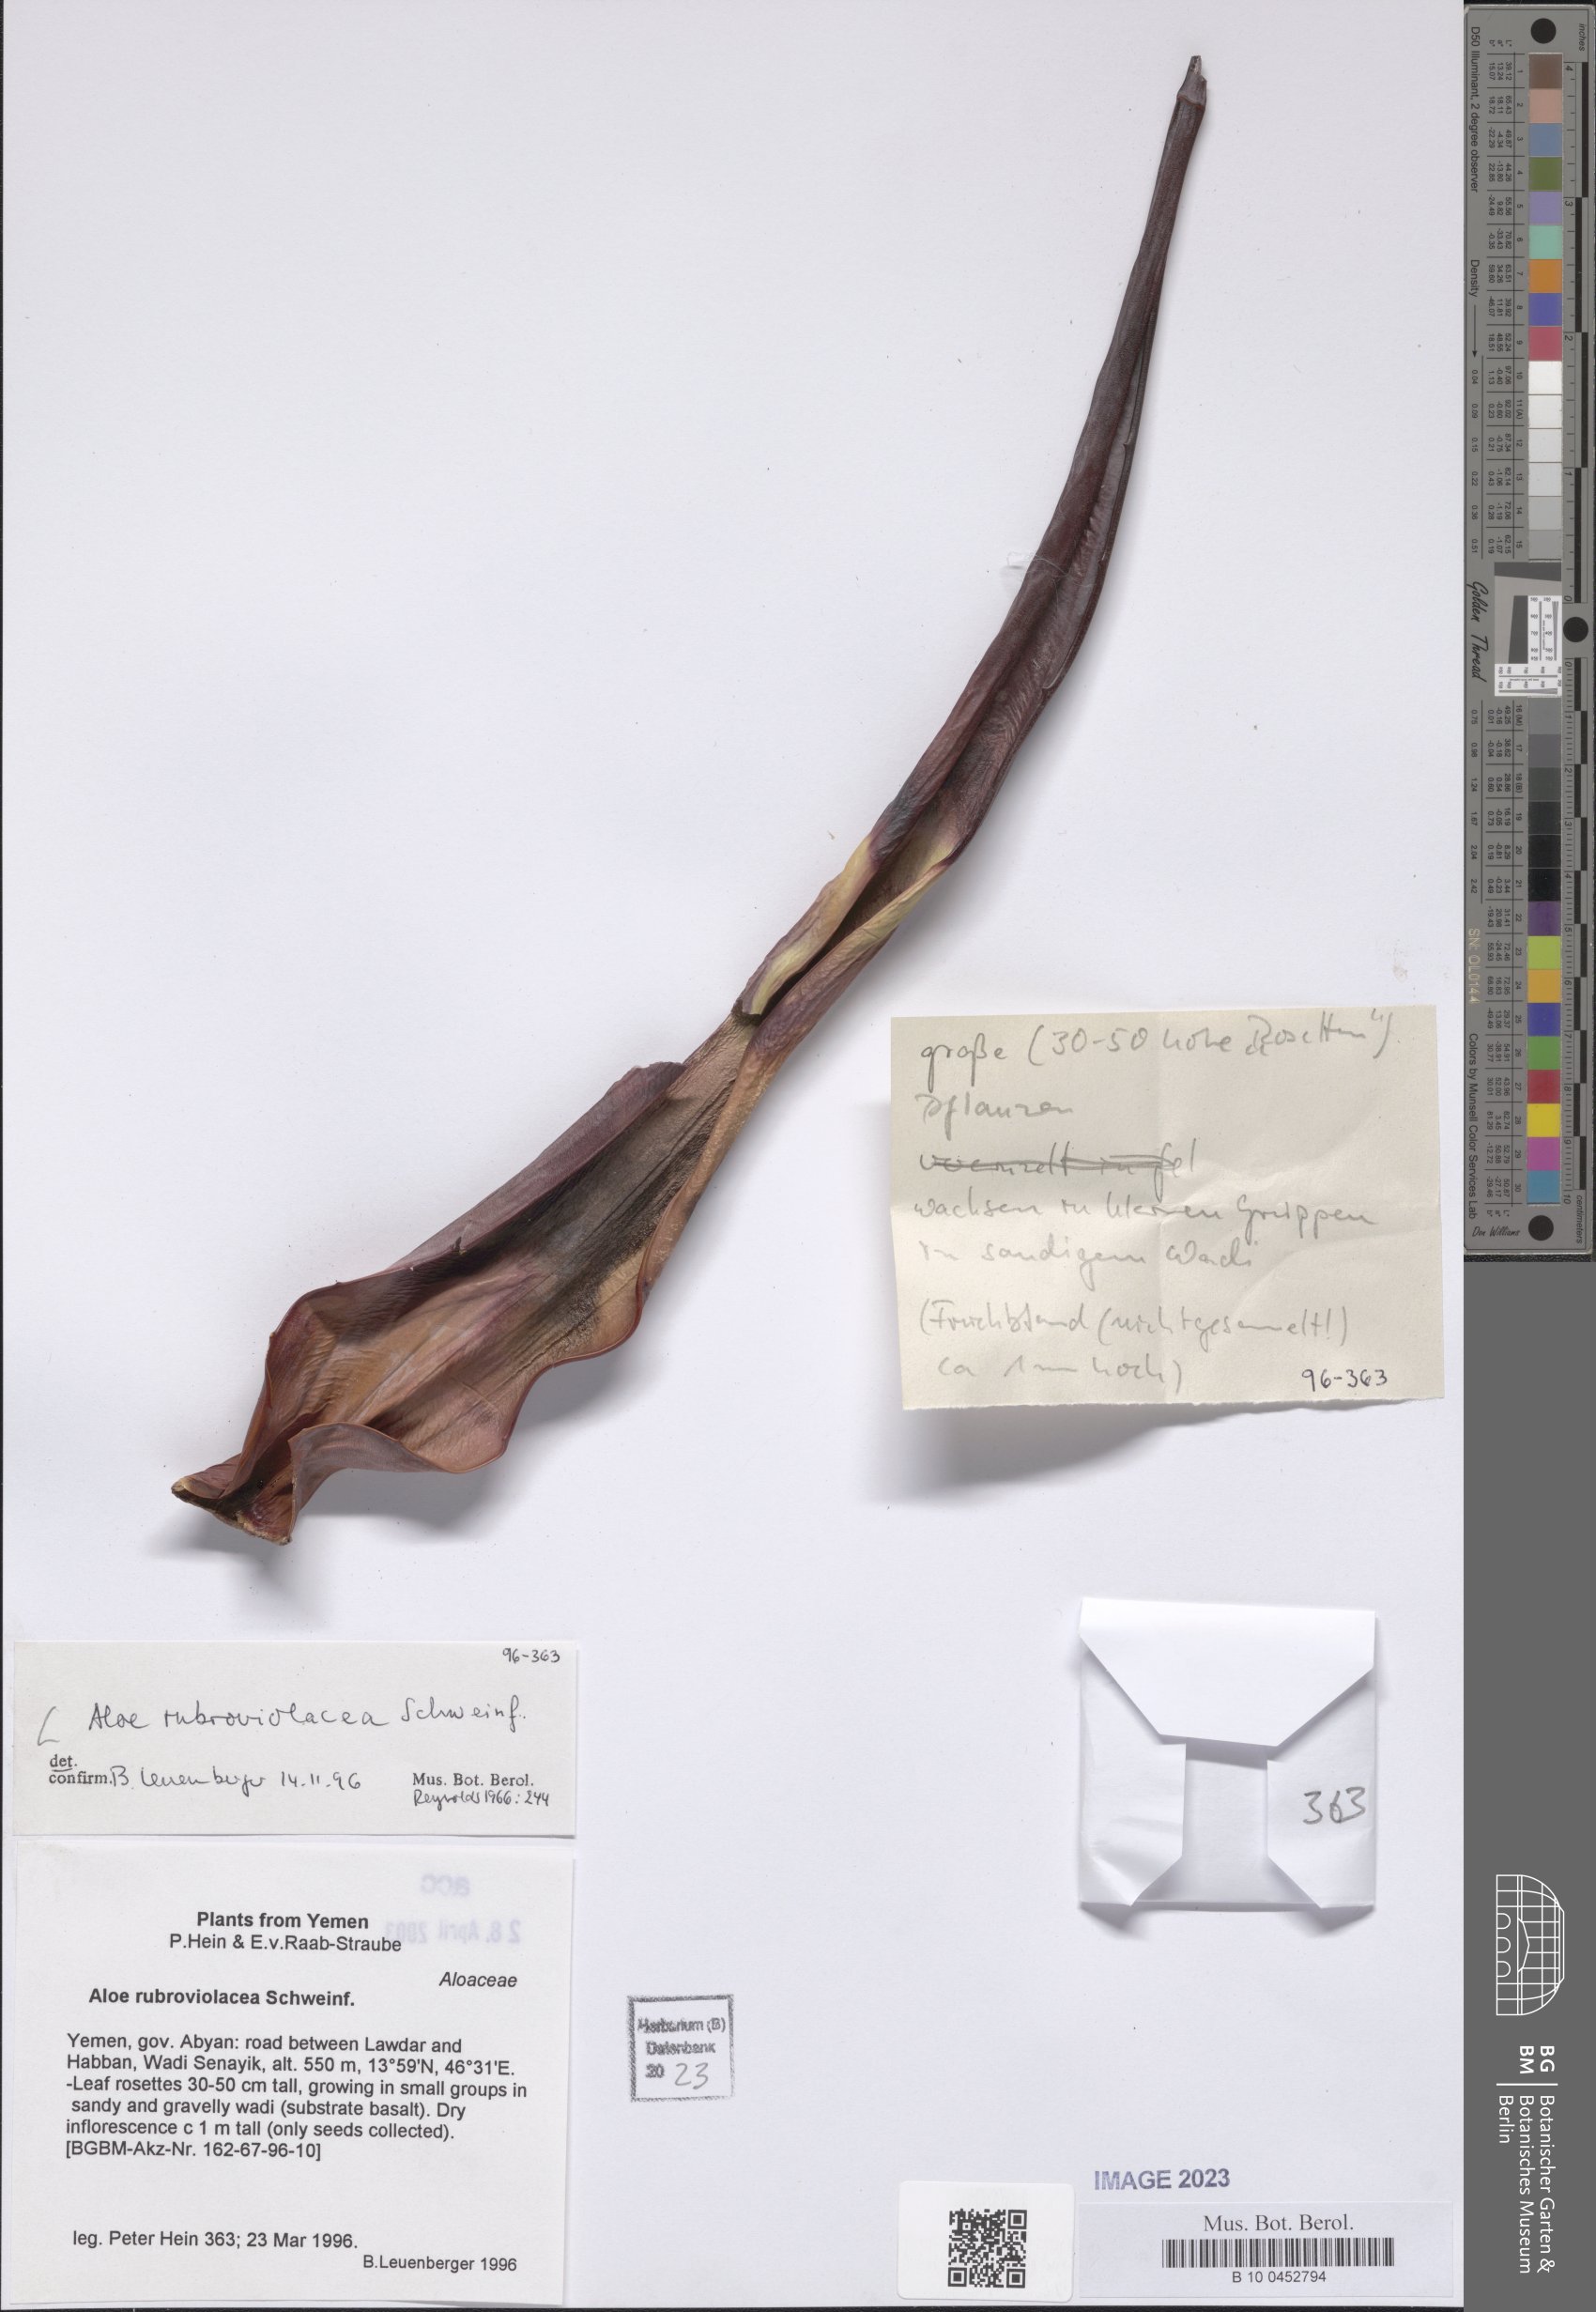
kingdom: Plantae
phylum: Tracheophyta
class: Liliopsida
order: Asparagales
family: Asphodelaceae
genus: Aloe
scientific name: Aloe rubroviolacea
